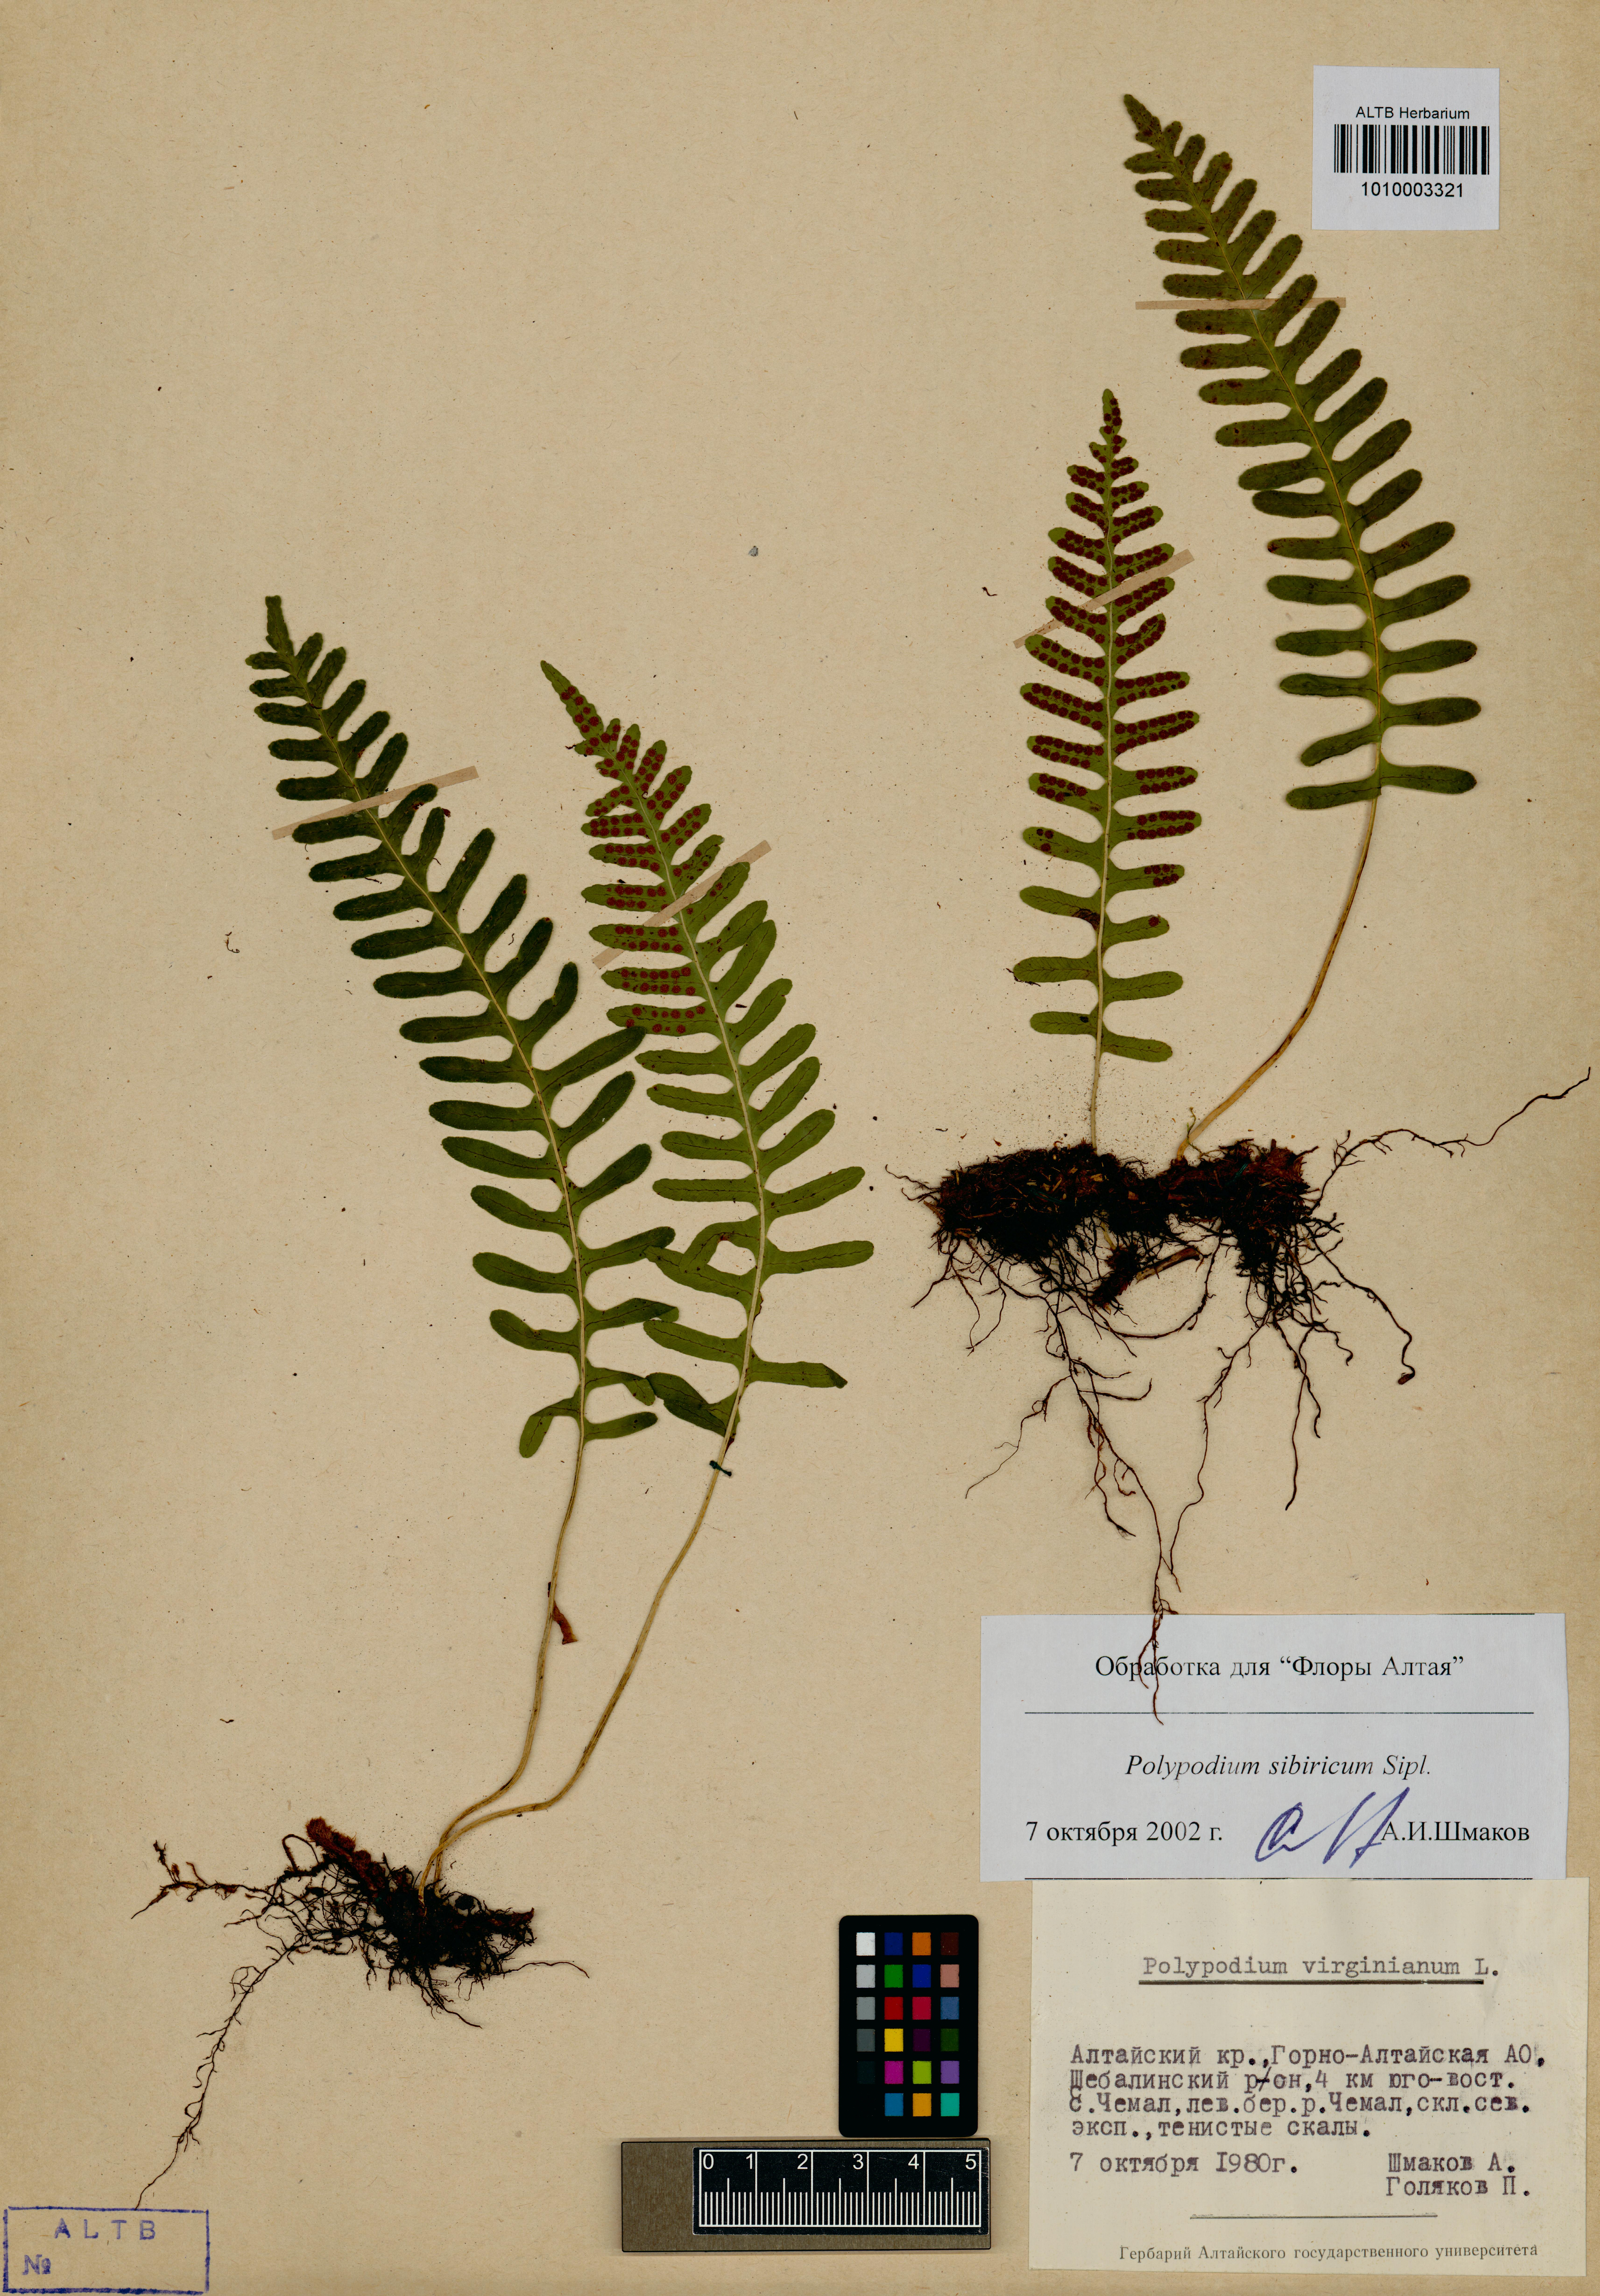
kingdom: Plantae
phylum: Tracheophyta
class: Polypodiopsida
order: Polypodiales
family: Polypodiaceae
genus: Polypodium
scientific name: Polypodium sibiricum
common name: Siberian polypody
